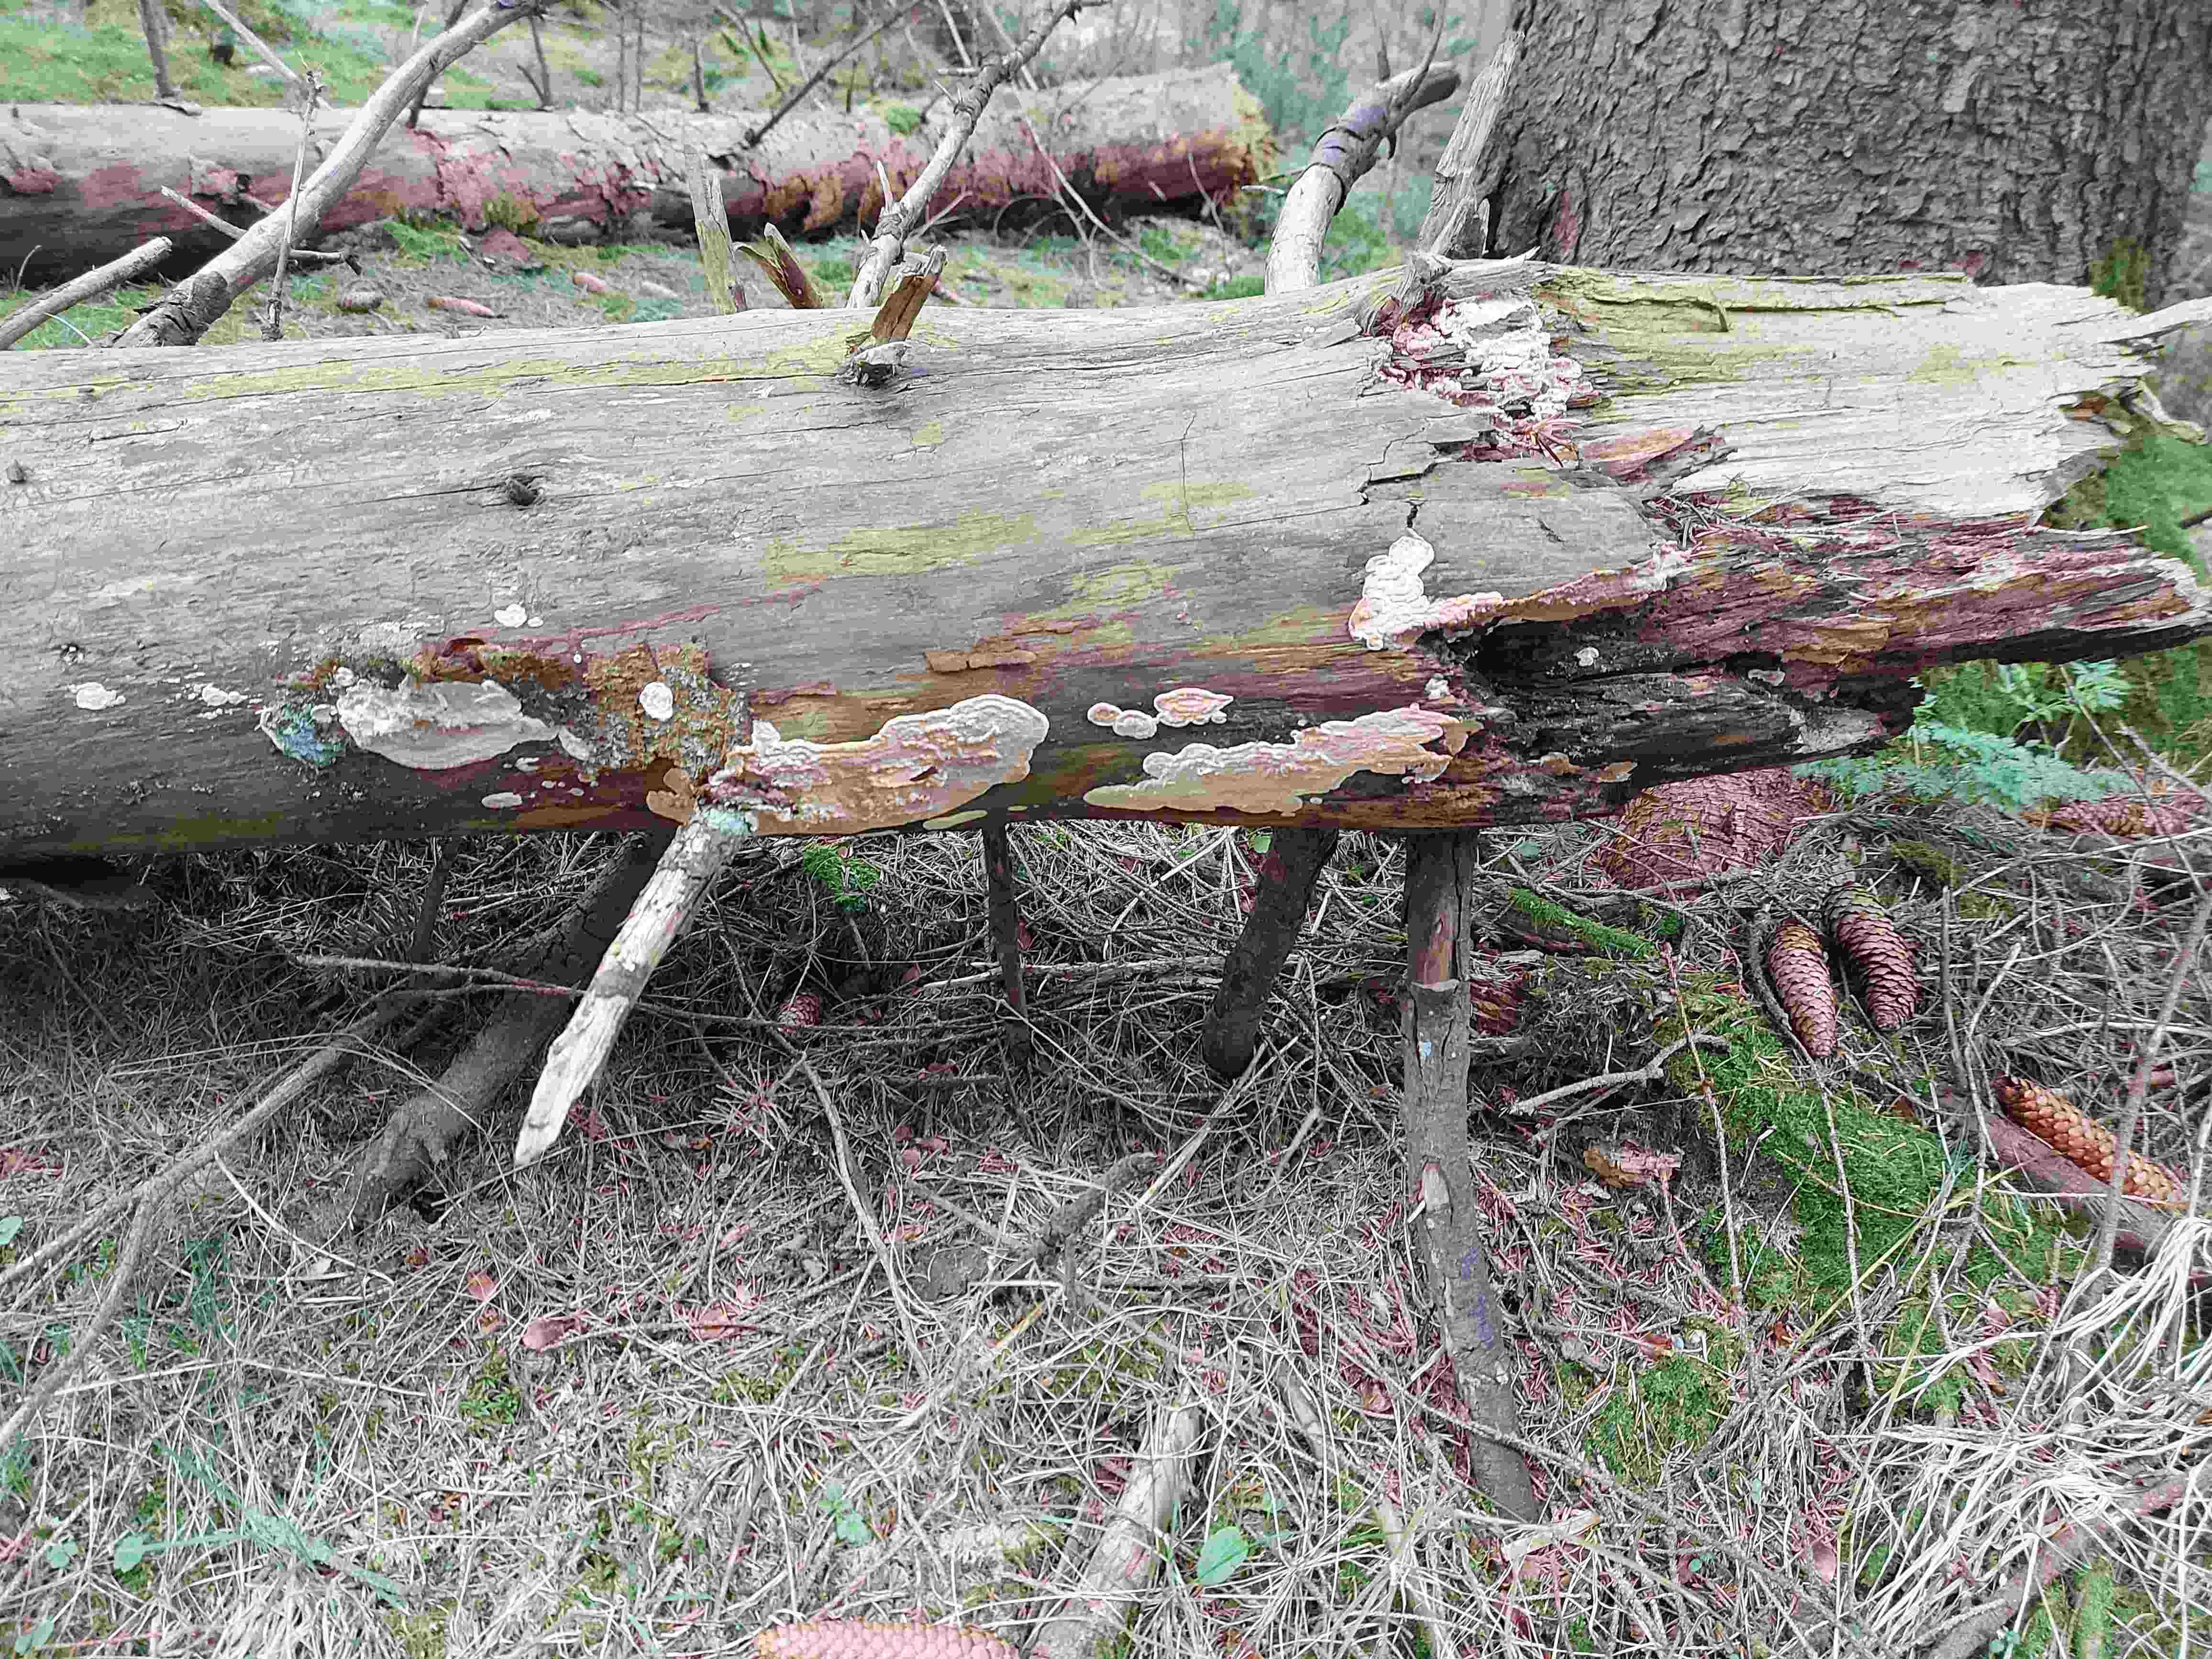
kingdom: Fungi
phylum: Basidiomycota
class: Agaricomycetes
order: Polyporales
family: Dacryobolaceae
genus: Dacryobolus
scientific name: Dacryobolus karstenii
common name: glat vulkanskorpe
